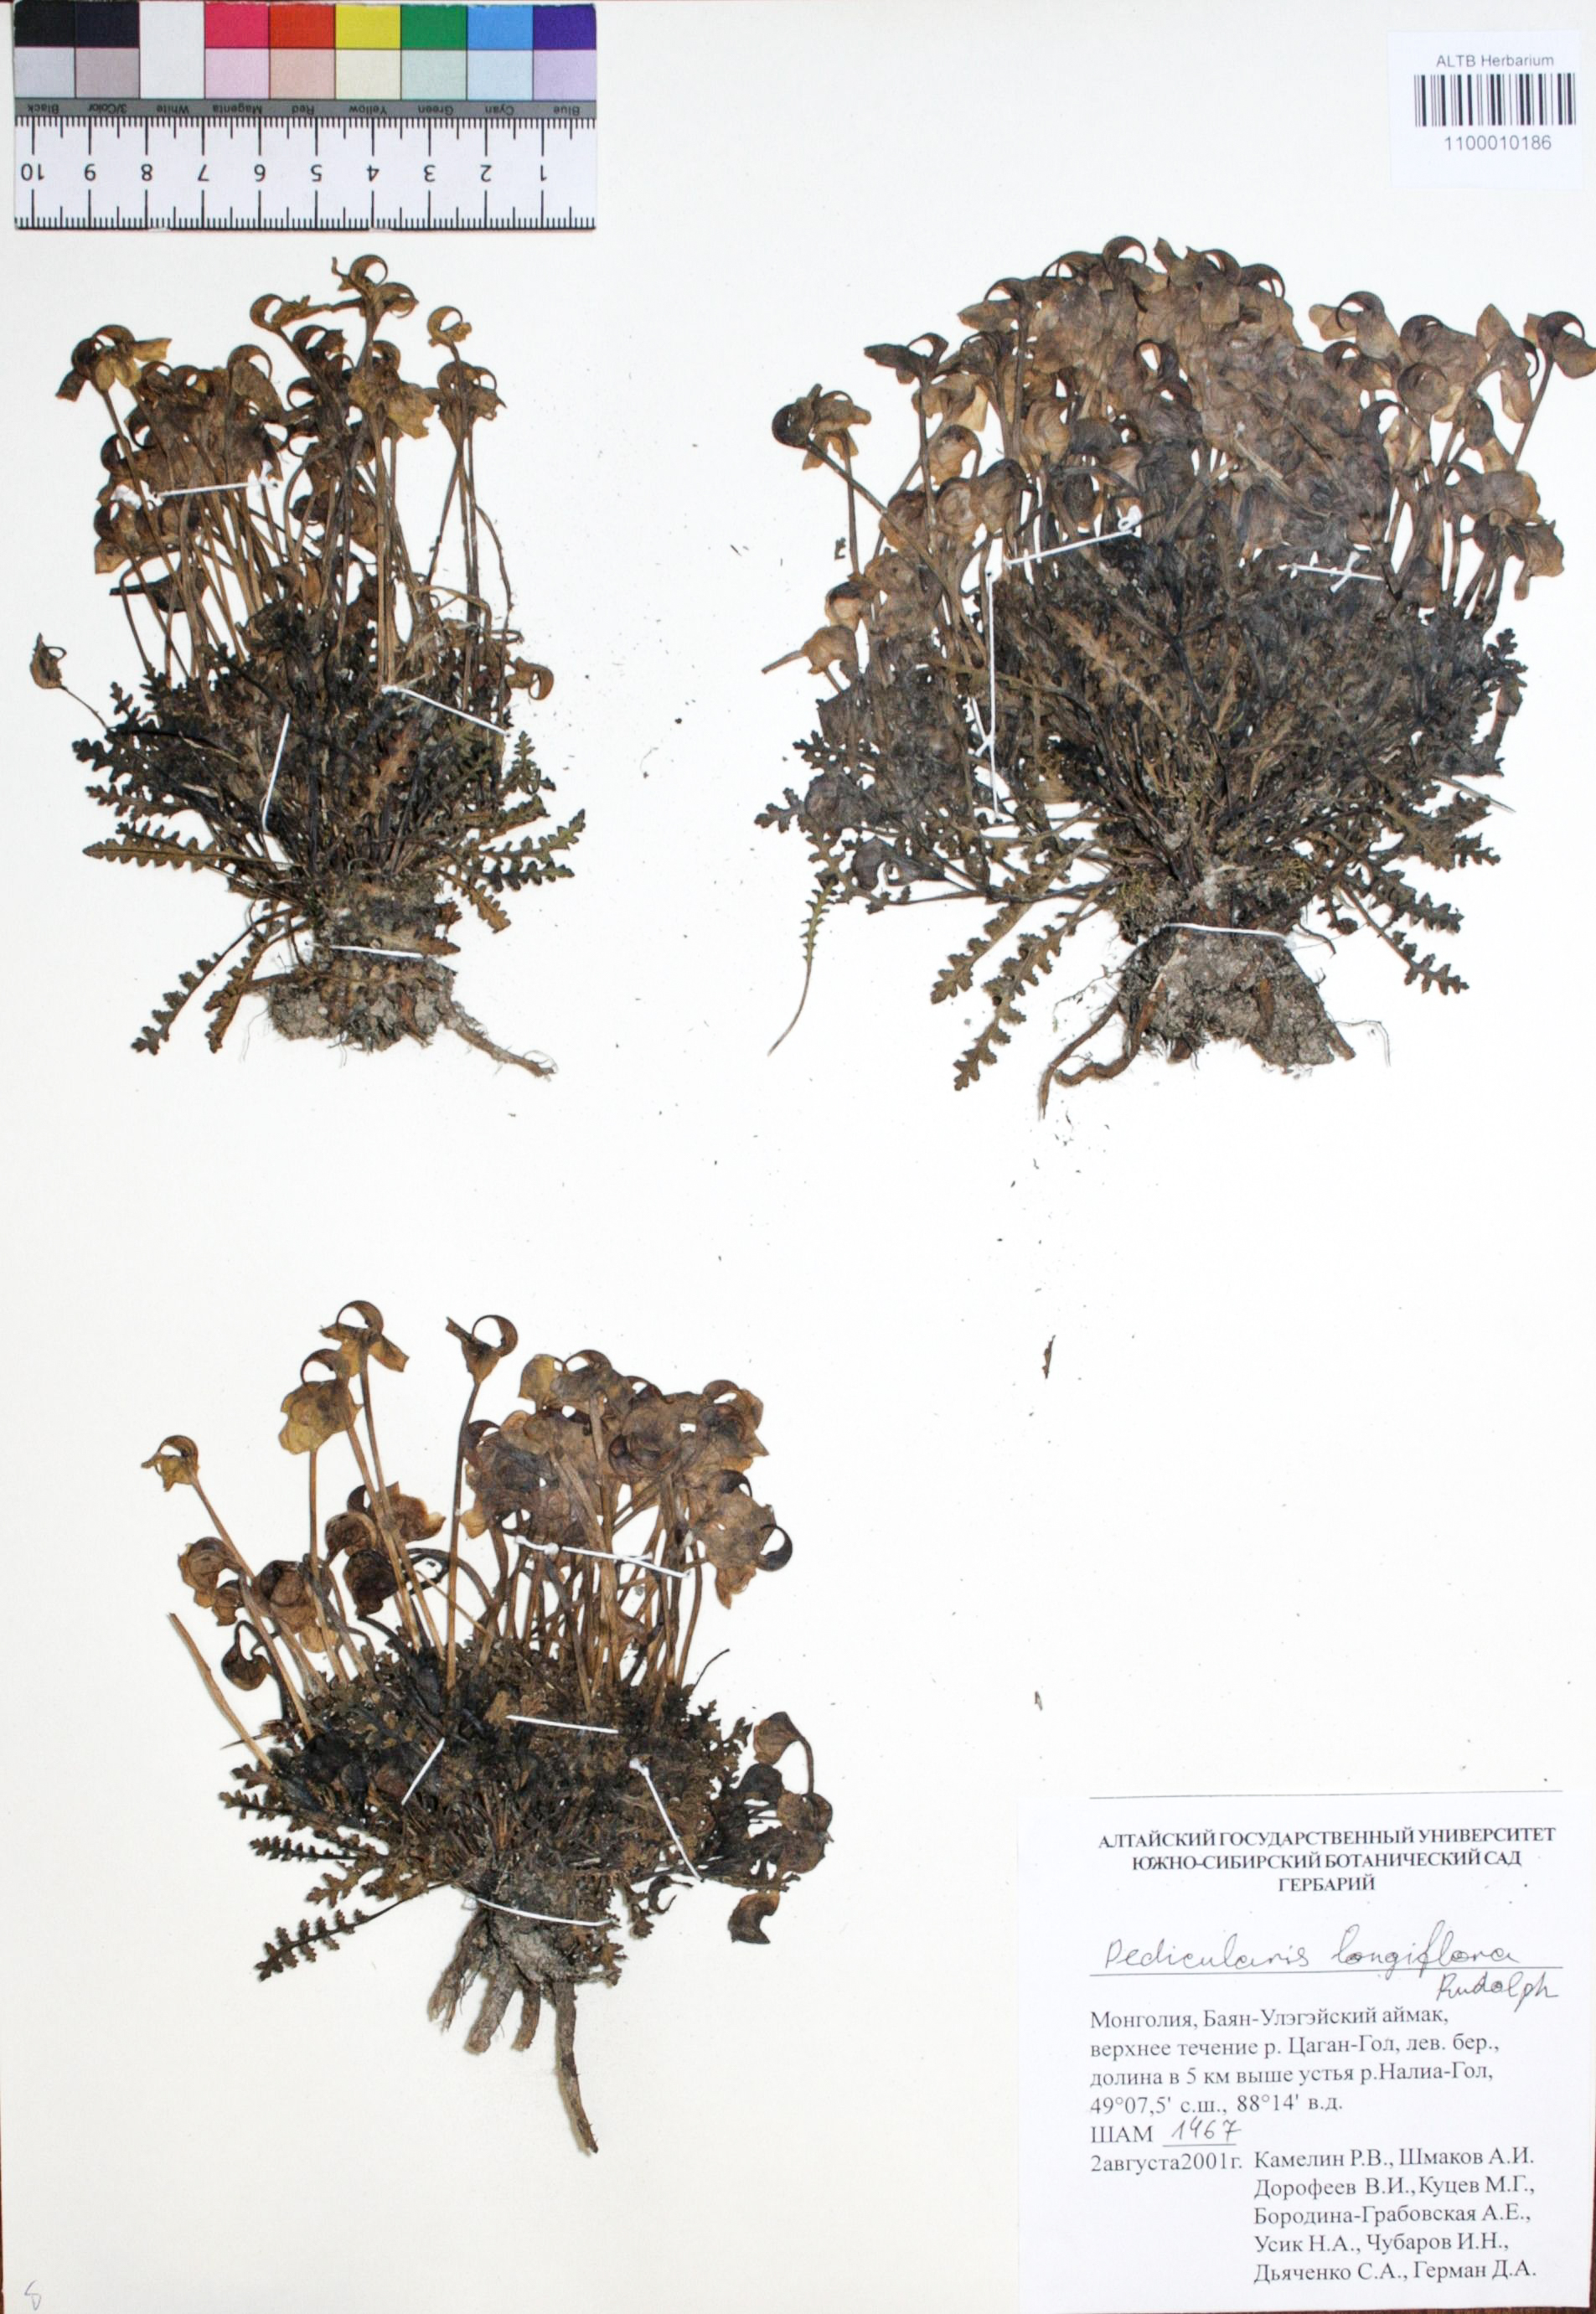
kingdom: Plantae
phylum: Tracheophyta
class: Magnoliopsida
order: Lamiales
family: Orobanchaceae
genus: Pedicularis
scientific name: Pedicularis longiflora
